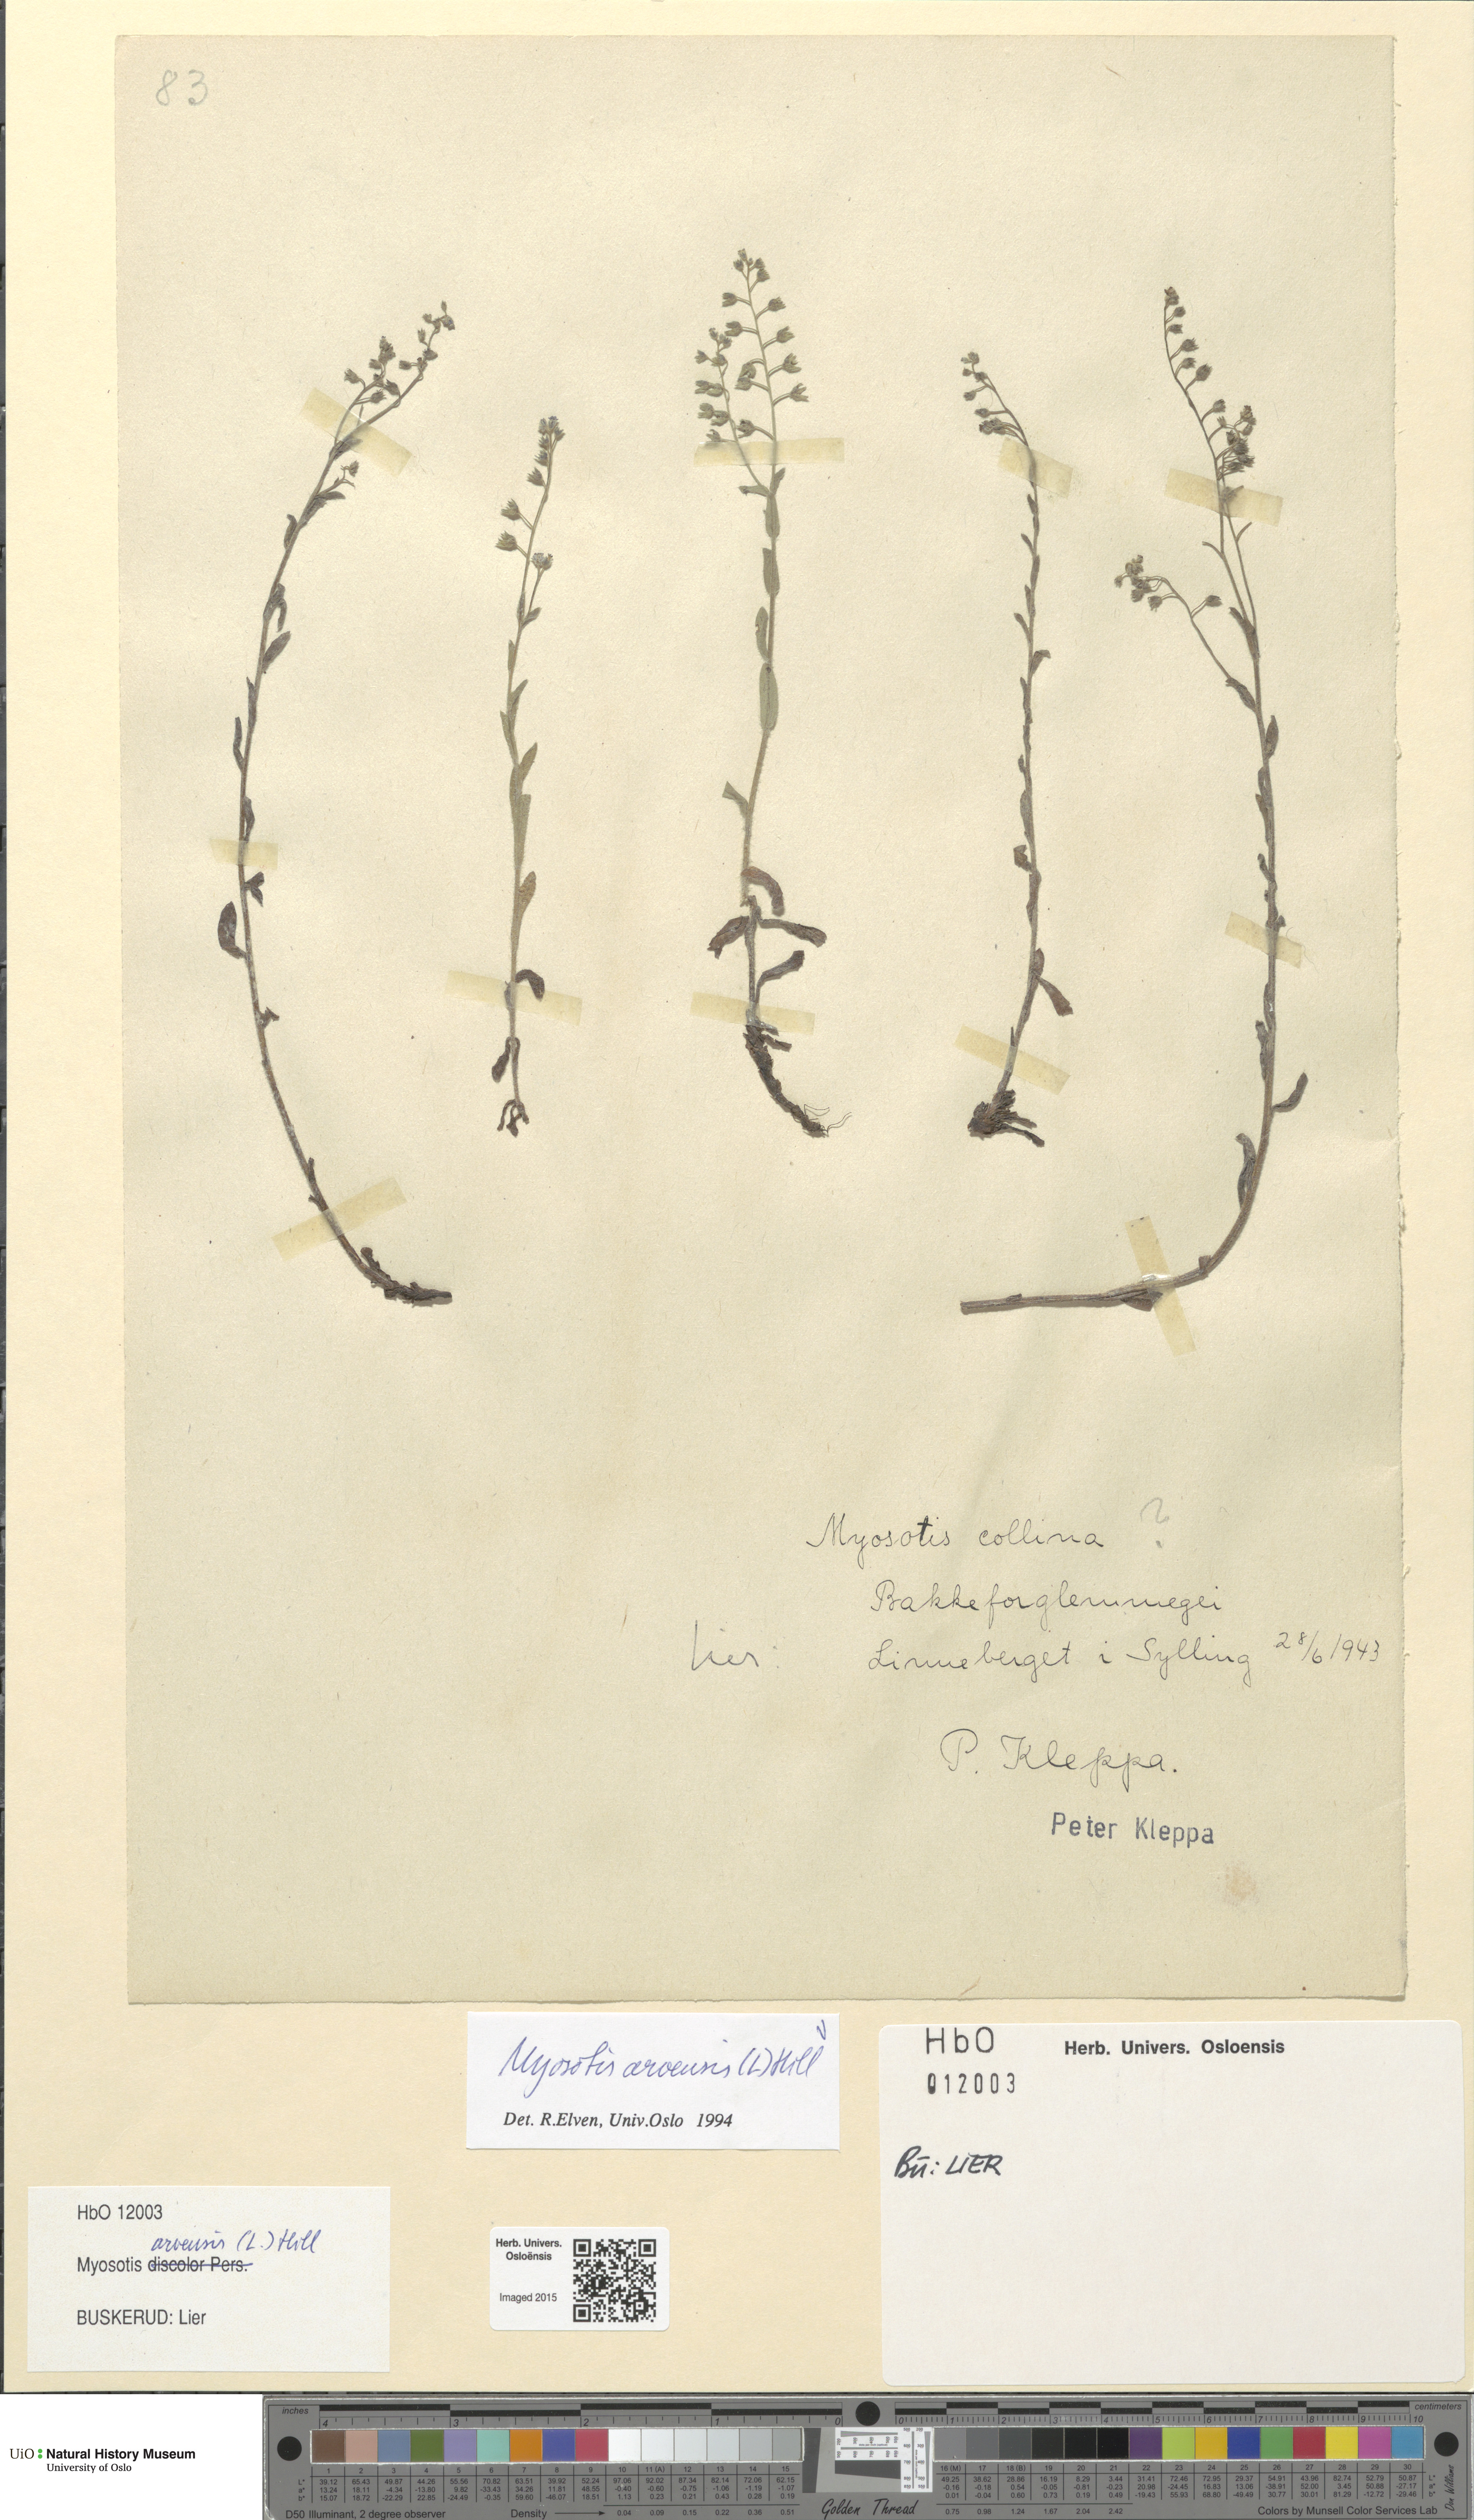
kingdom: Plantae
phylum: Tracheophyta
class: Magnoliopsida
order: Boraginales
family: Boraginaceae
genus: Myosotis
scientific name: Myosotis arvensis
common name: Field forget-me-not
